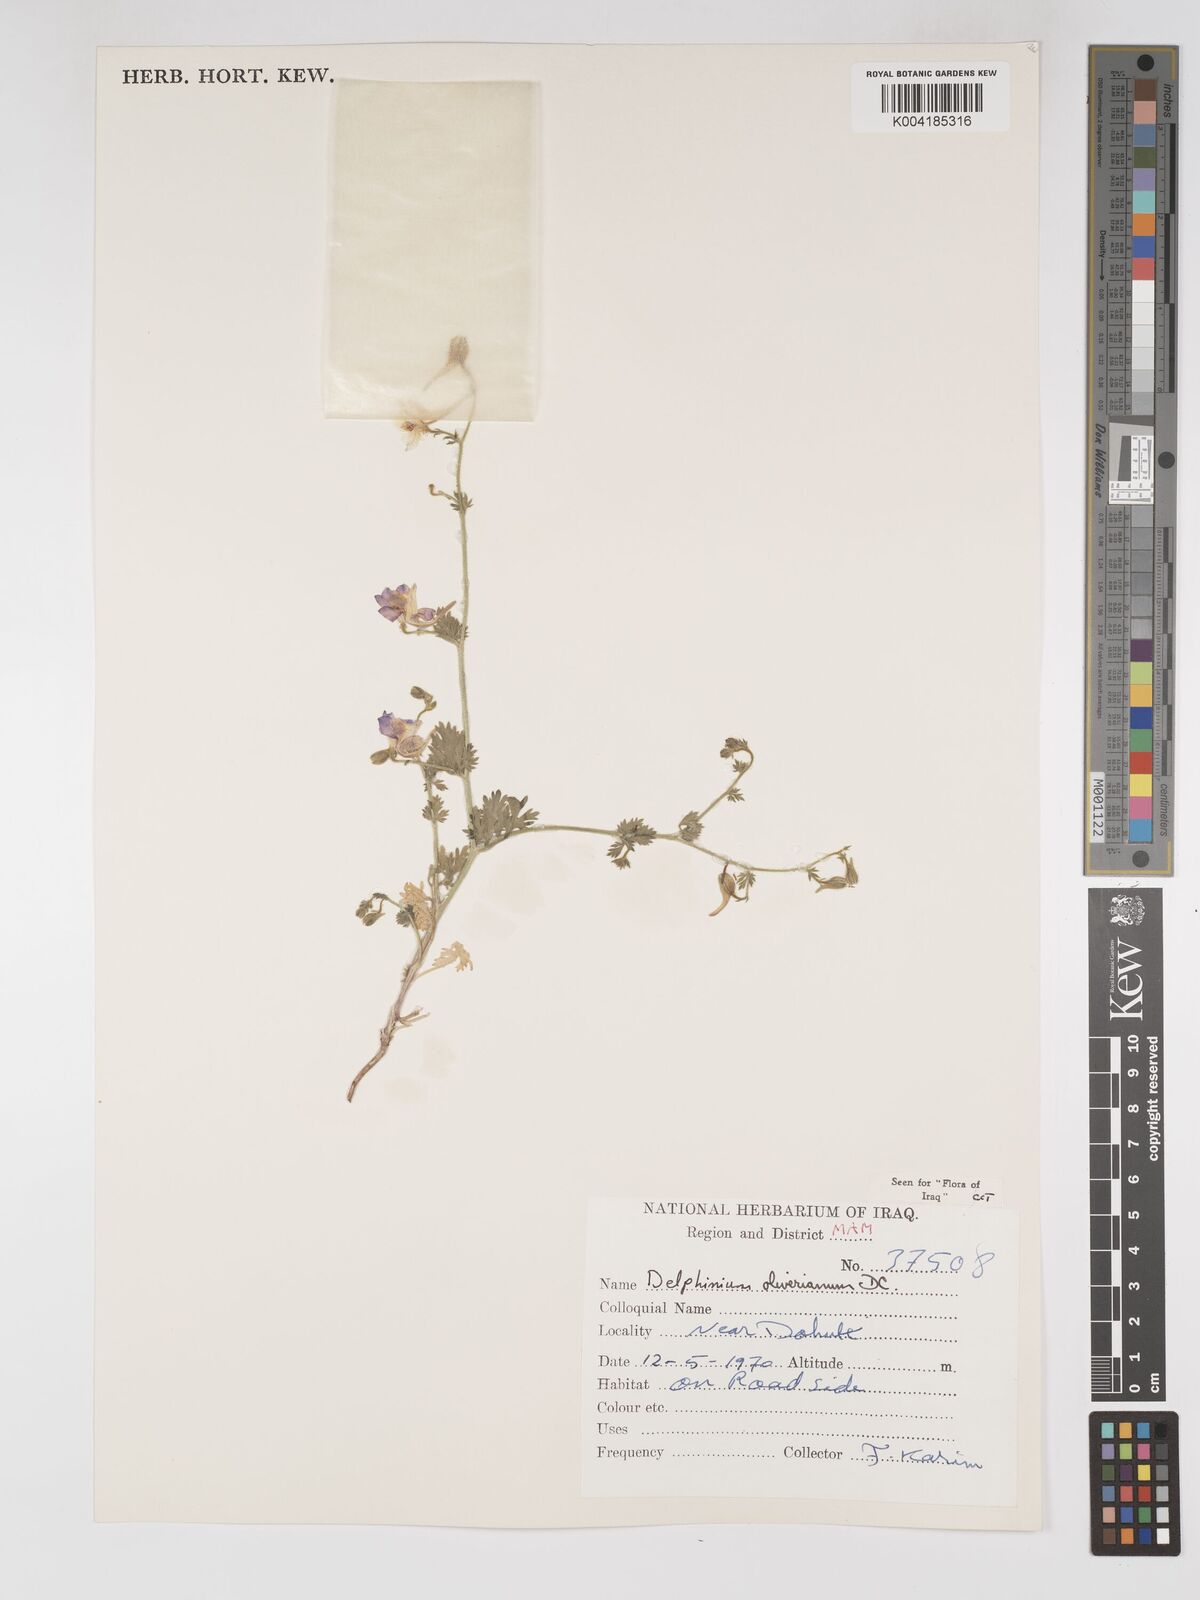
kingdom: Plantae
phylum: Tracheophyta
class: Magnoliopsida
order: Ranunculales
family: Ranunculaceae
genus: Delphinium
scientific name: Delphinium oliverianum
